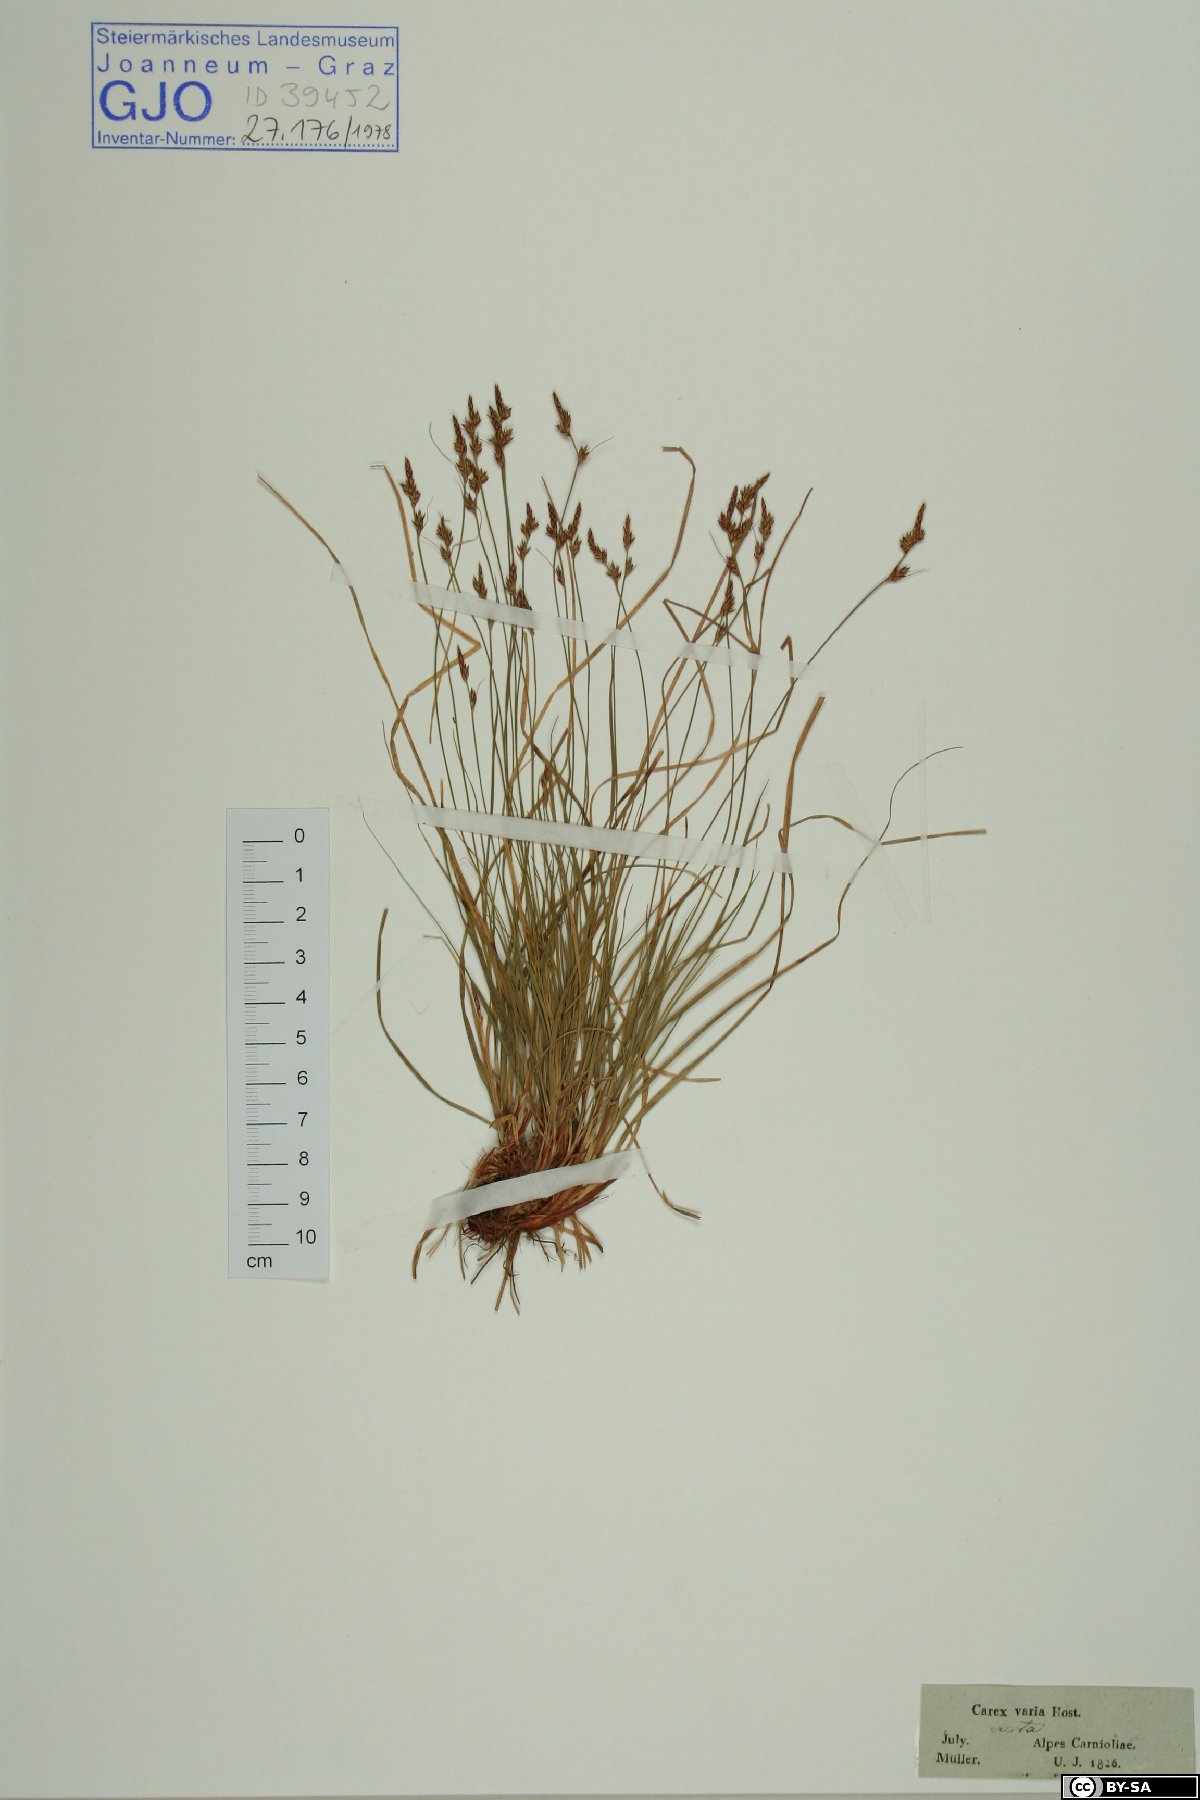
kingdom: Plantae
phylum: Tracheophyta
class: Liliopsida
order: Poales
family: Cyperaceae
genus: Carex
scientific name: Carex sempervirens
